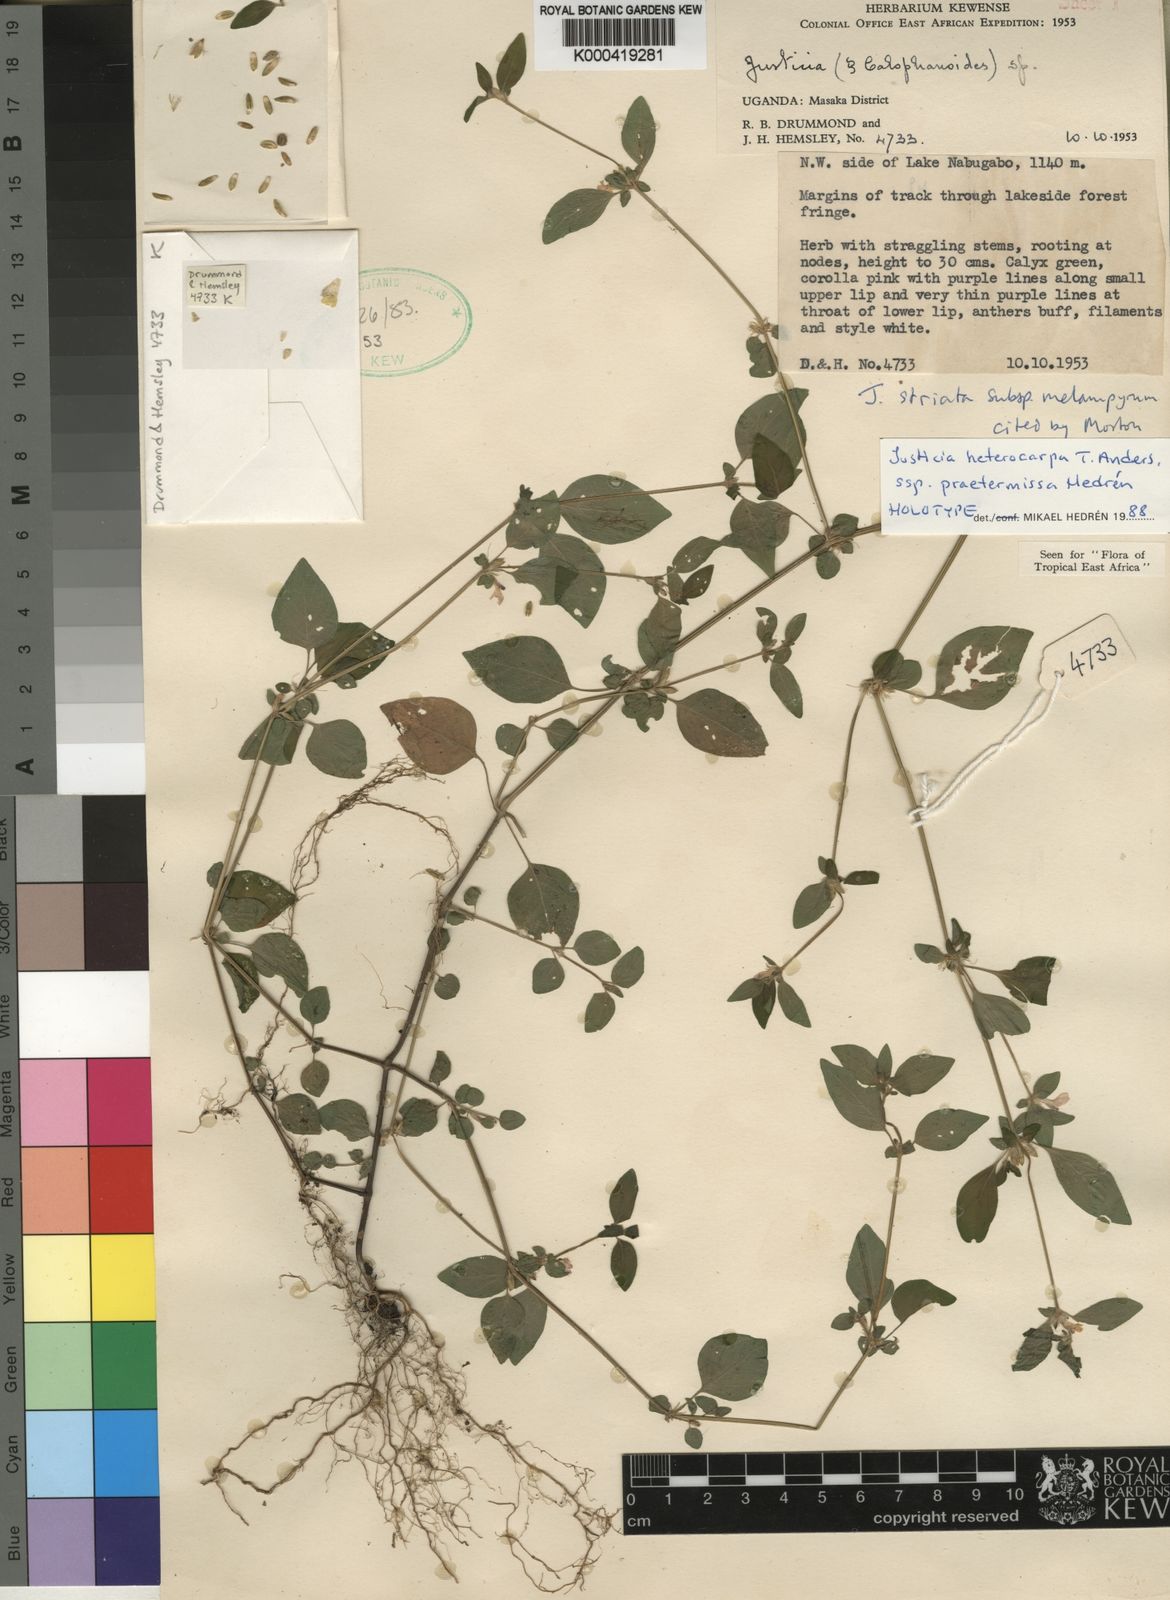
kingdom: Plantae
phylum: Tracheophyta
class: Magnoliopsida
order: Lamiales
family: Acanthaceae
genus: Justicia
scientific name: Justicia heterocarpa
